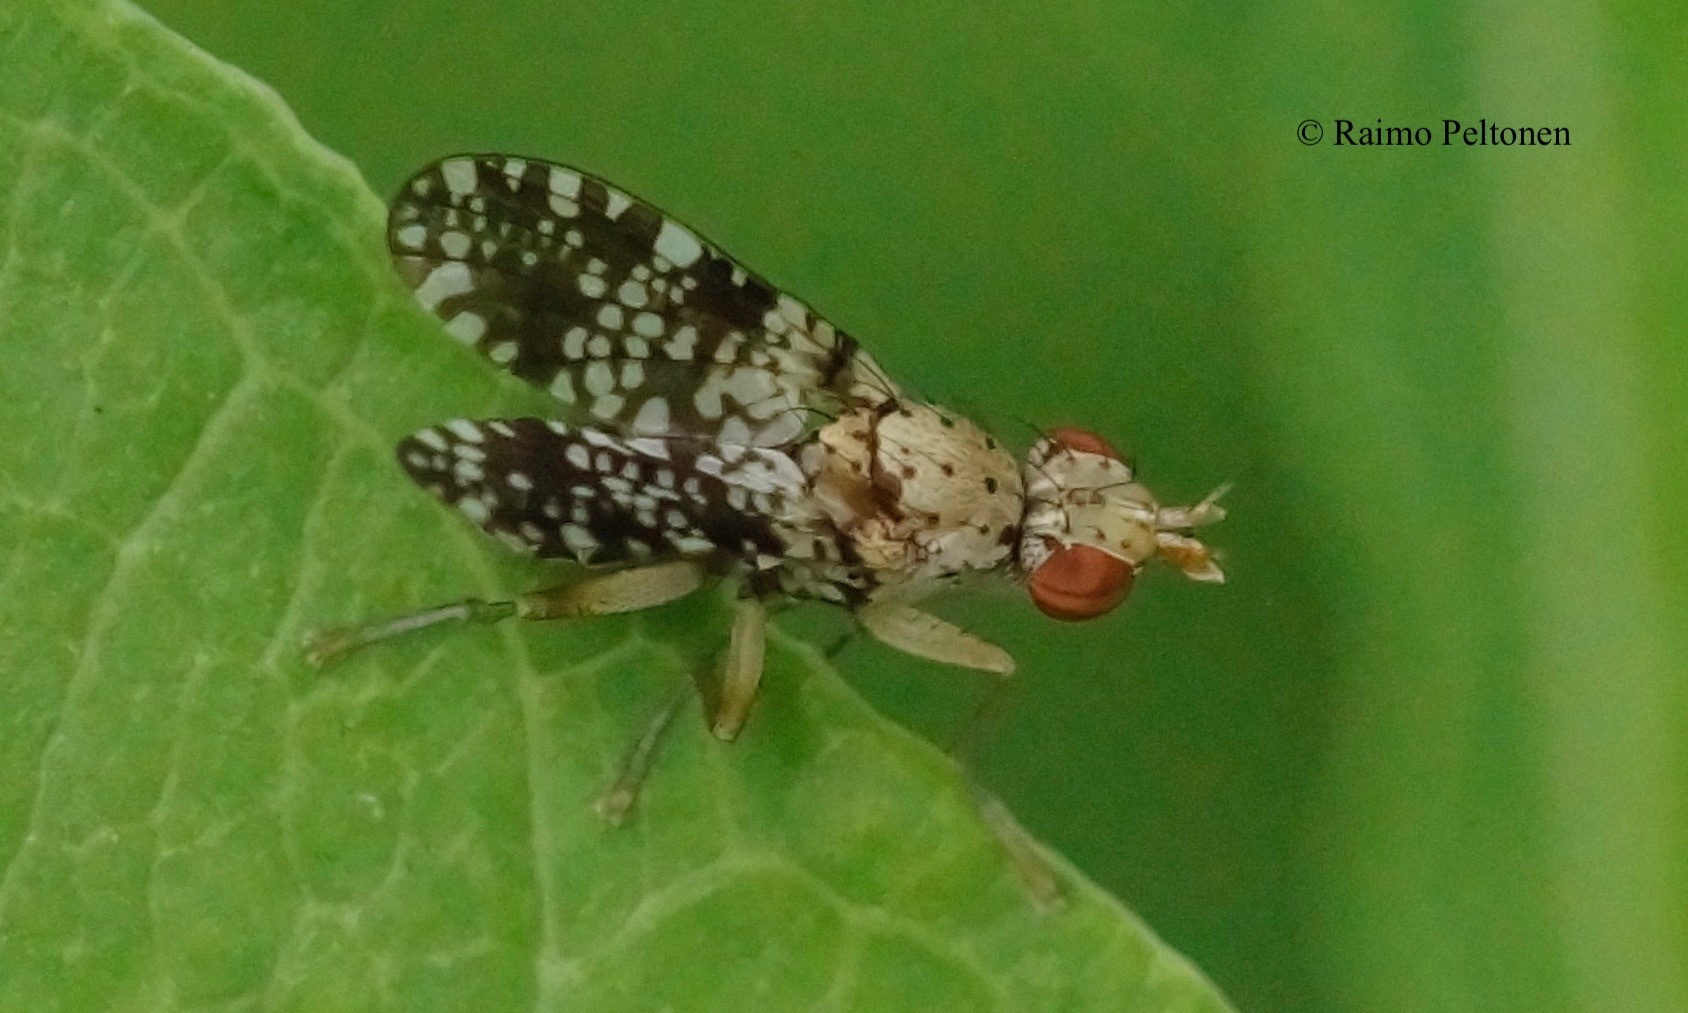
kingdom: Animalia
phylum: Arthropoda
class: Insecta
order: Diptera
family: Sciomyzidae
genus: Trypetoptera
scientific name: Trypetoptera punctulata
